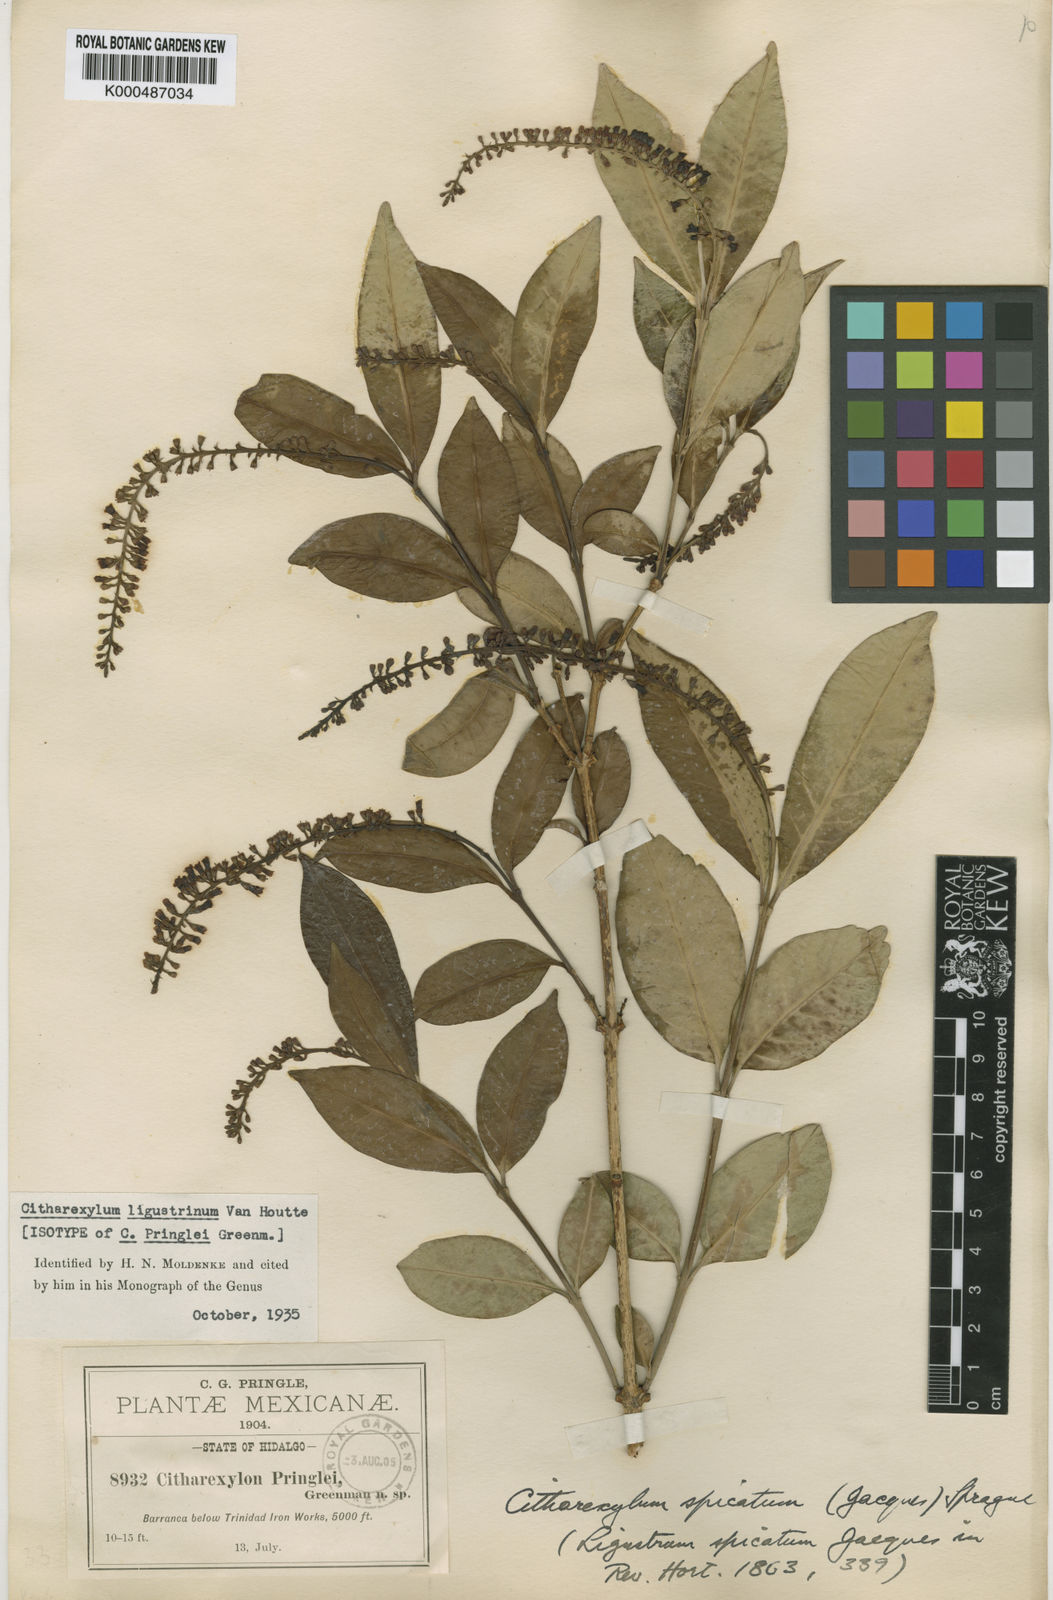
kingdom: Plantae
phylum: Tracheophyta
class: Magnoliopsida
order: Lamiales
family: Verbenaceae
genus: Citharexylum
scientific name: Citharexylum
